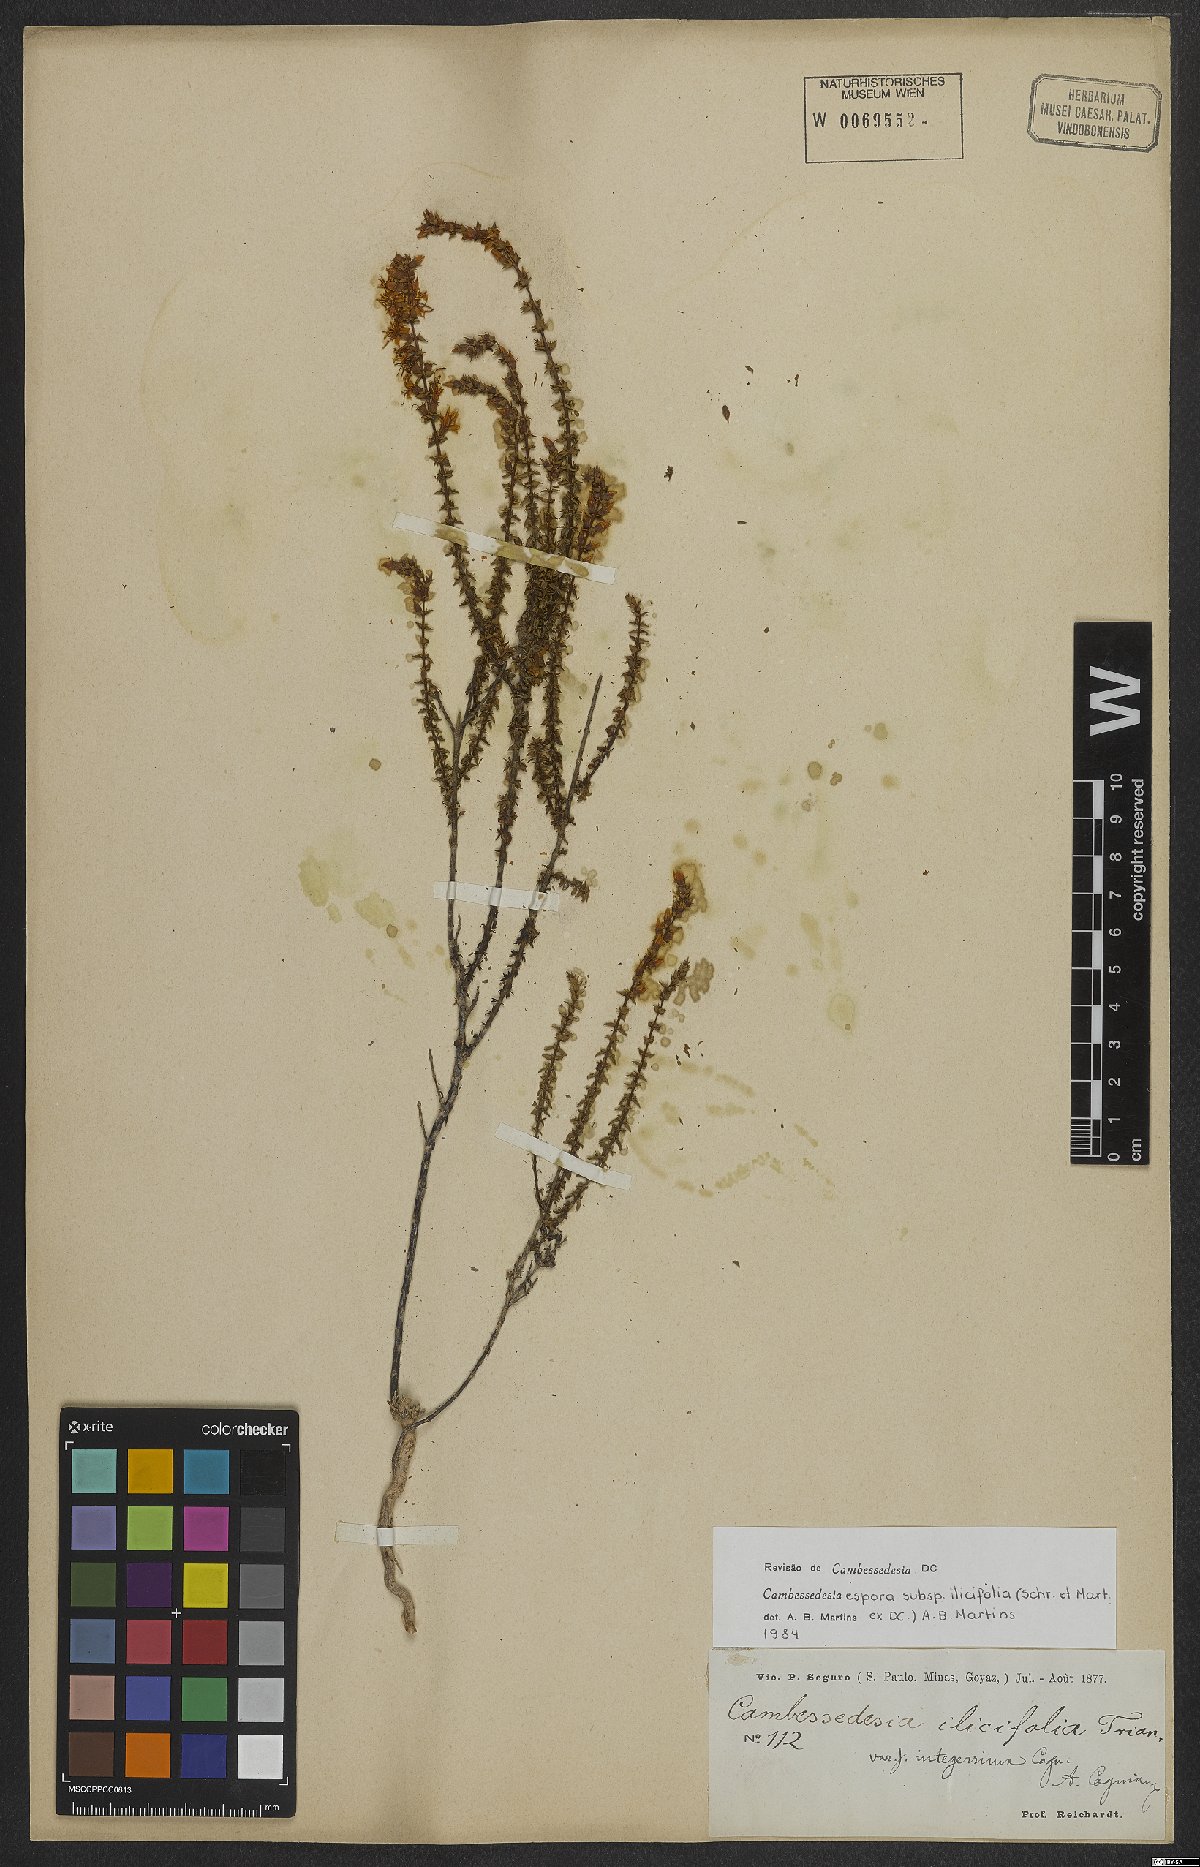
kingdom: Plantae
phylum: Tracheophyta
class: Magnoliopsida
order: Myrtales
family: Melastomataceae
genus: Cambessedesia
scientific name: Cambessedesia espora
